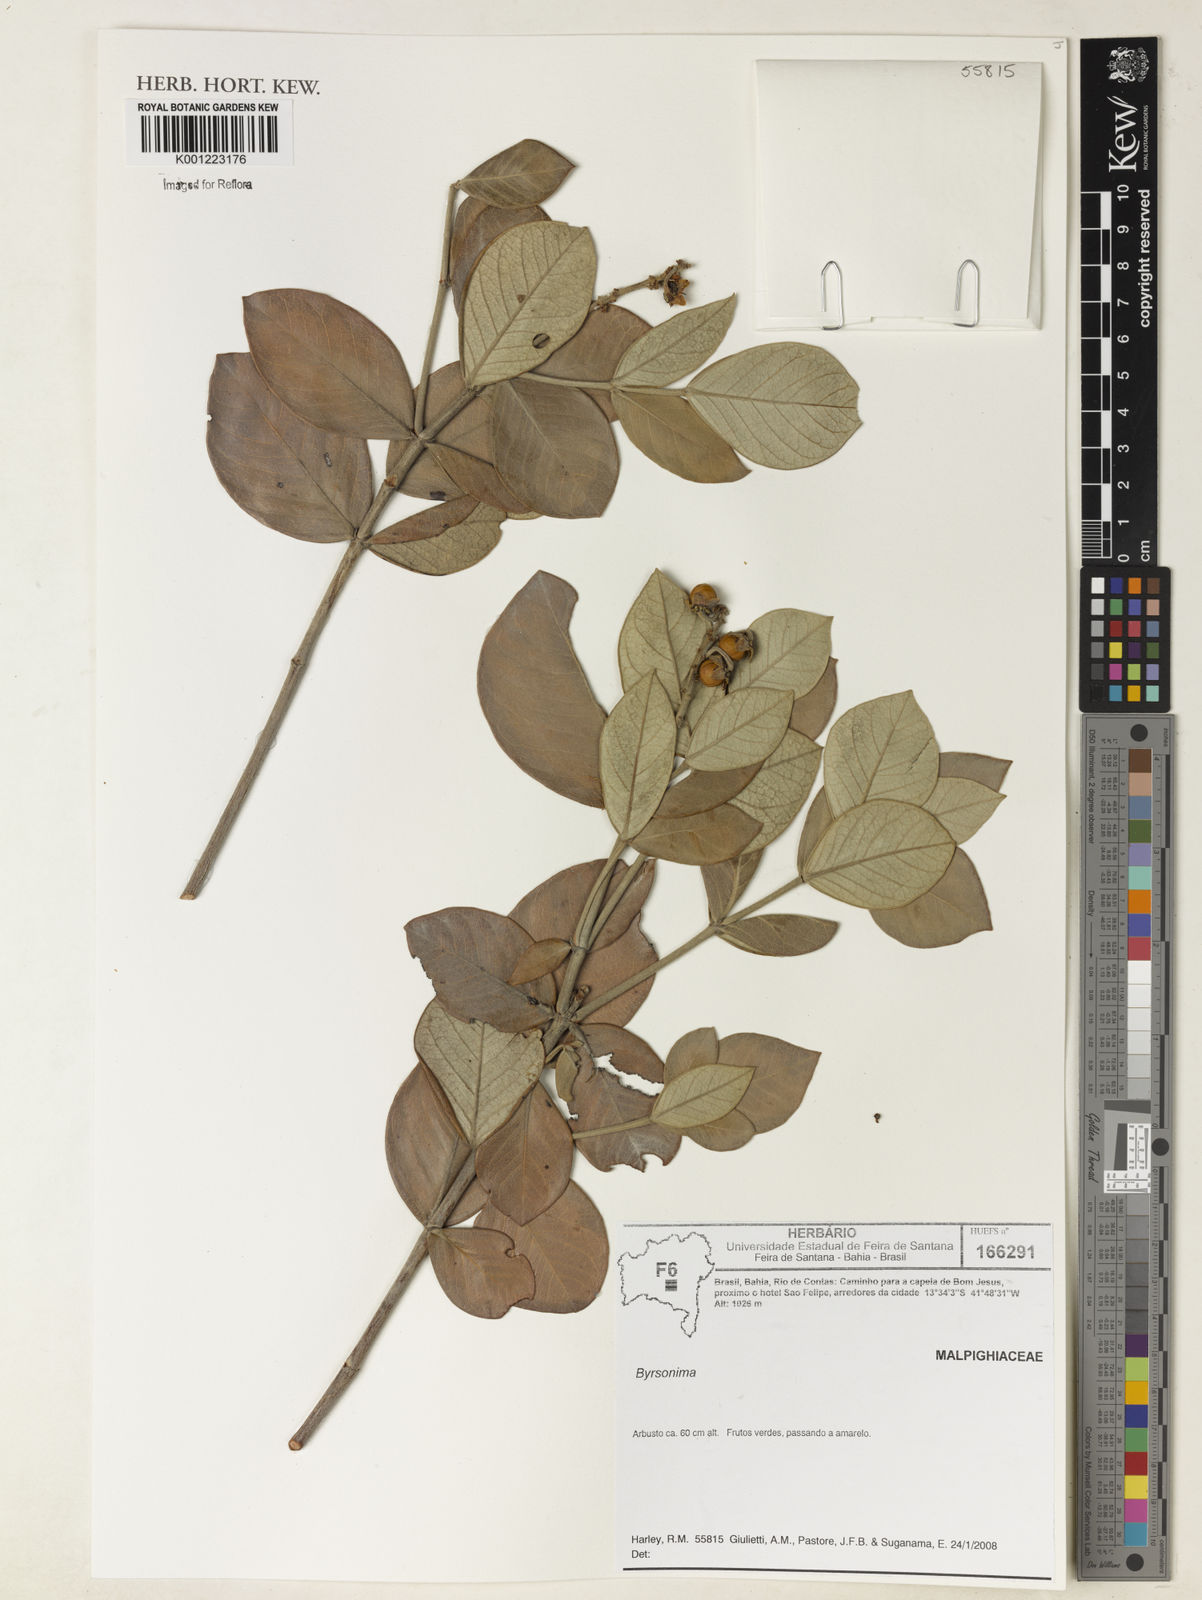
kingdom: Plantae
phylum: Tracheophyta
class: Magnoliopsida
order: Malpighiales
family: Malpighiaceae
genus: Byrsonima
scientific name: Byrsonima
